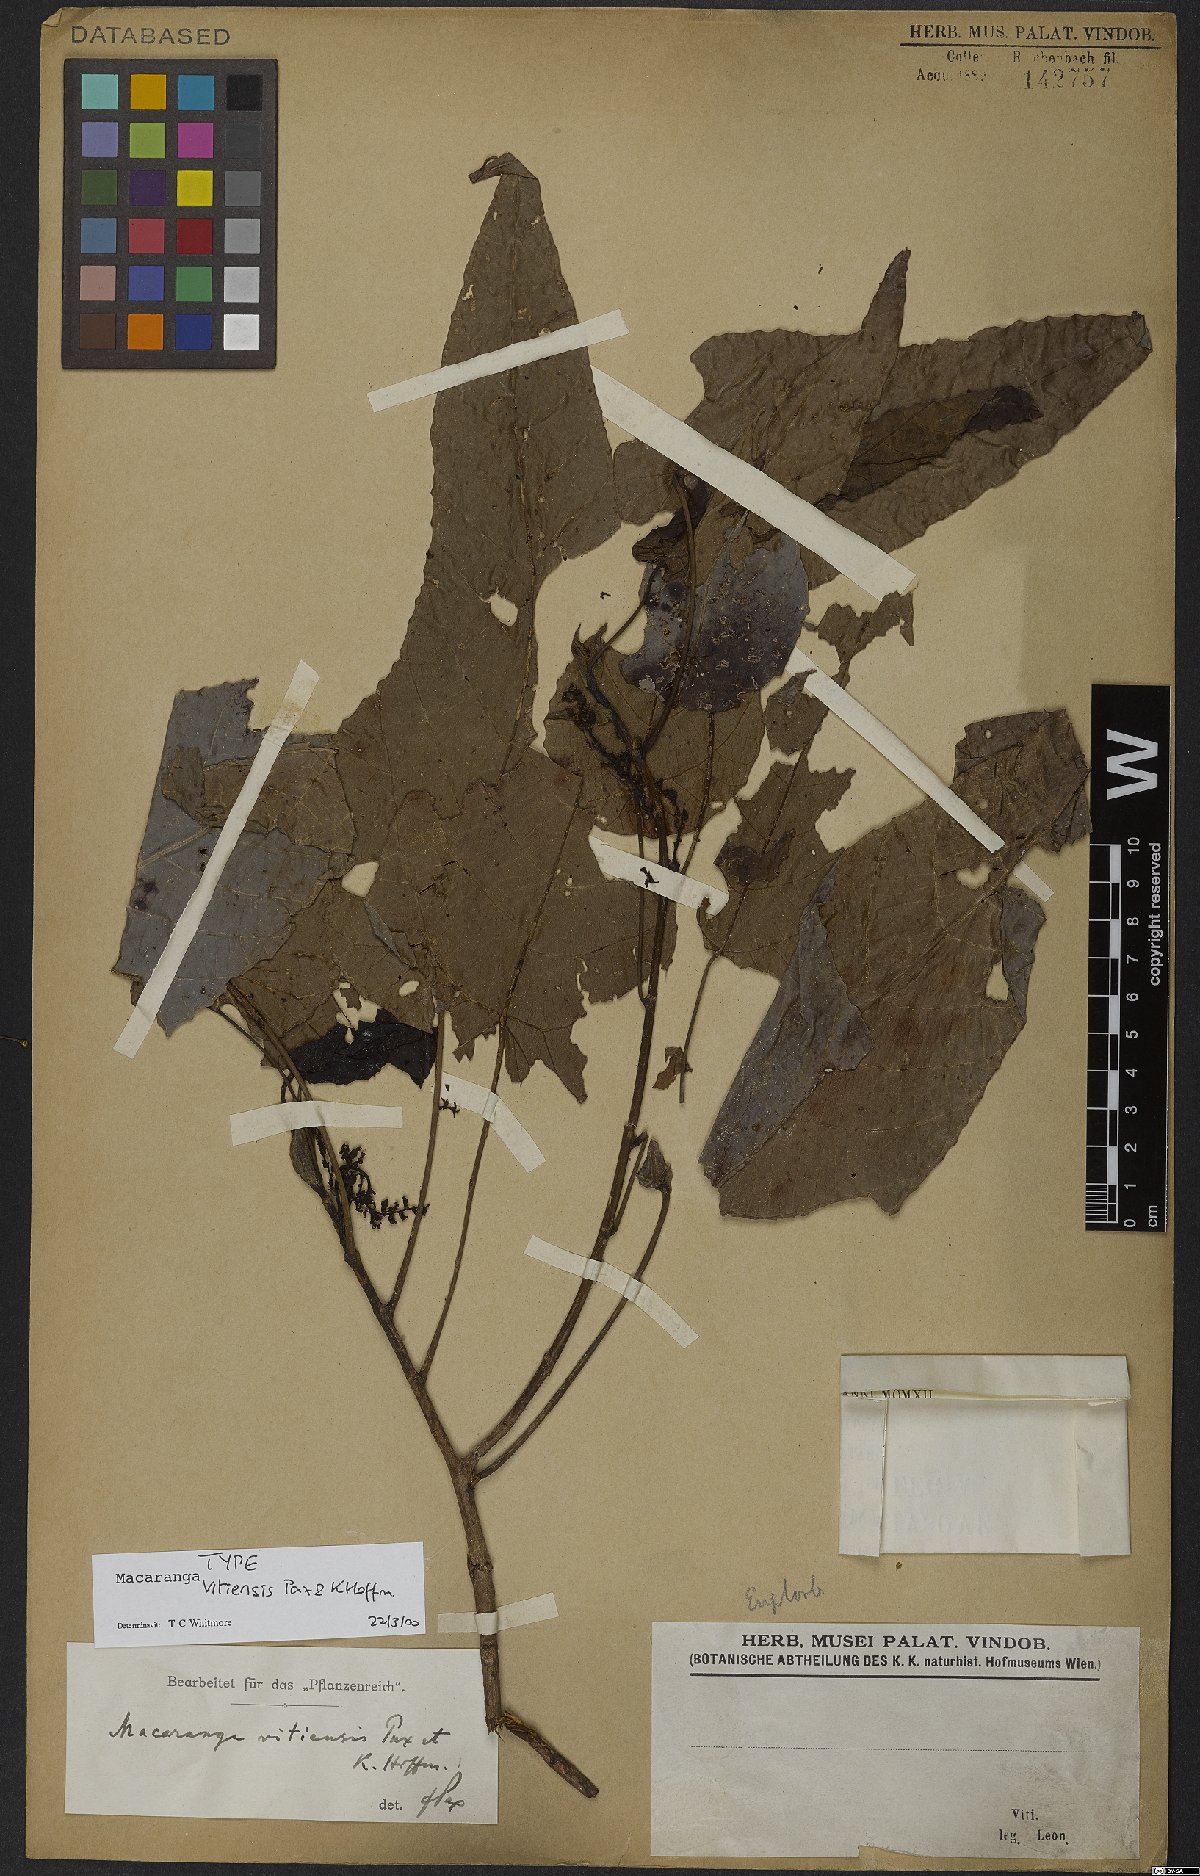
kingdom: Plantae
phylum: Tracheophyta
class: Magnoliopsida
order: Malpighiales
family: Euphorbiaceae
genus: Macaranga
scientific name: Macaranga vitiensis
